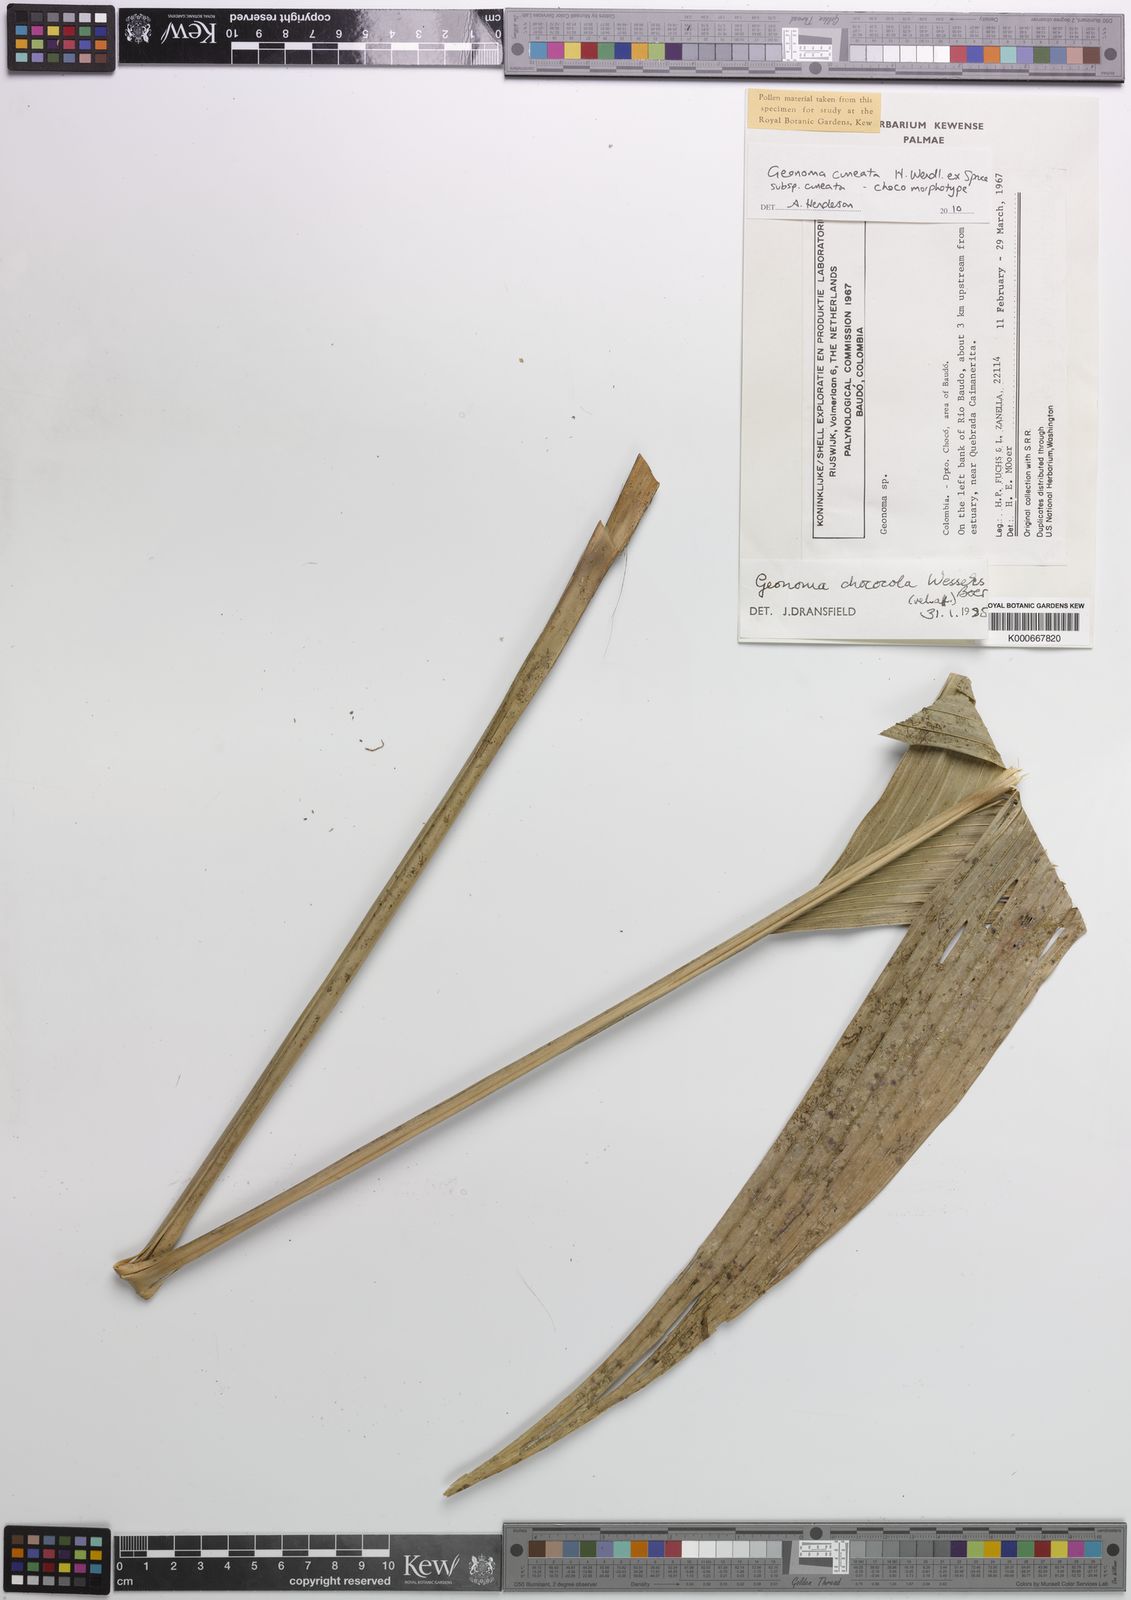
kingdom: Plantae
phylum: Tracheophyta
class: Liliopsida
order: Arecales
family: Arecaceae
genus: Geonoma
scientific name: Geonoma cuneata
